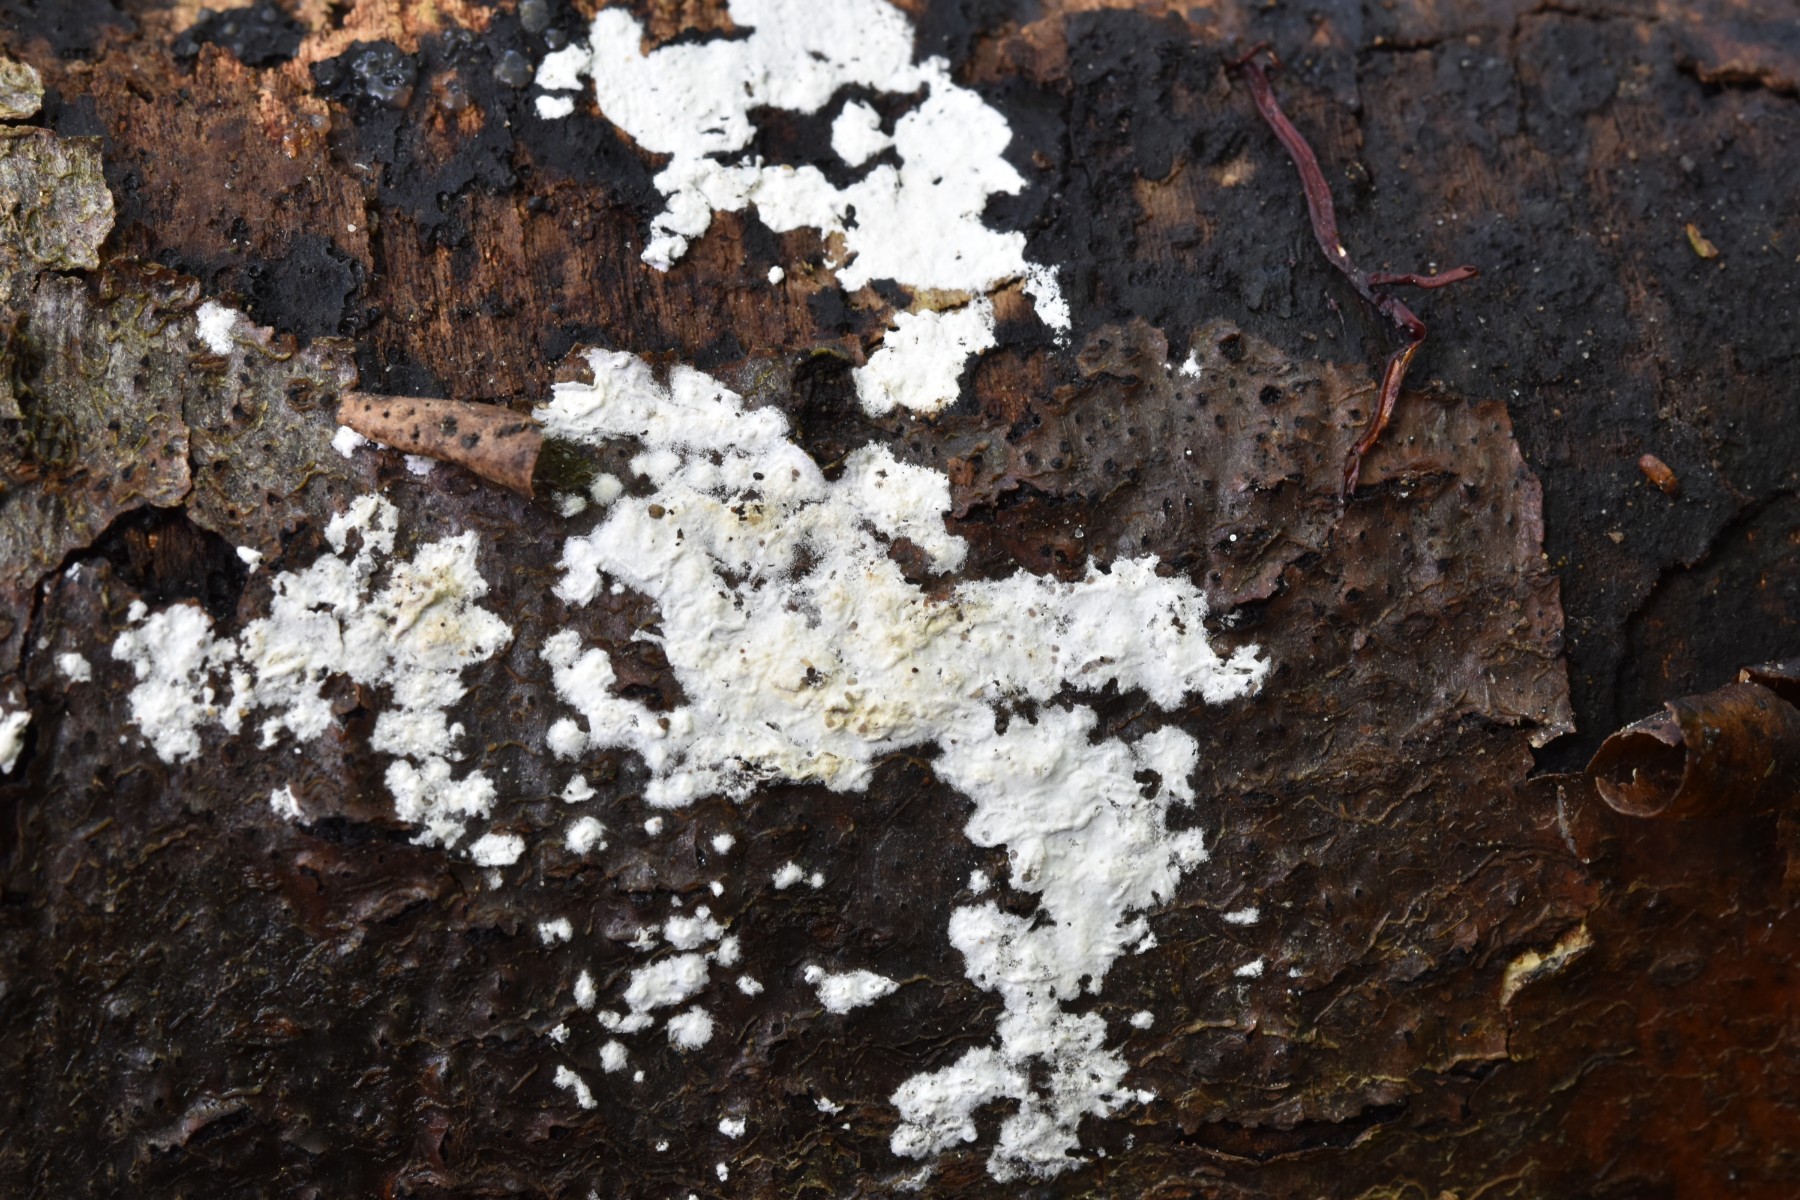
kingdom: Fungi
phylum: Basidiomycota
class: Agaricomycetes
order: Corticiales
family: Corticiaceae
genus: Lyomyces
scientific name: Lyomyces sambuci
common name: almindelig hyldehinde
